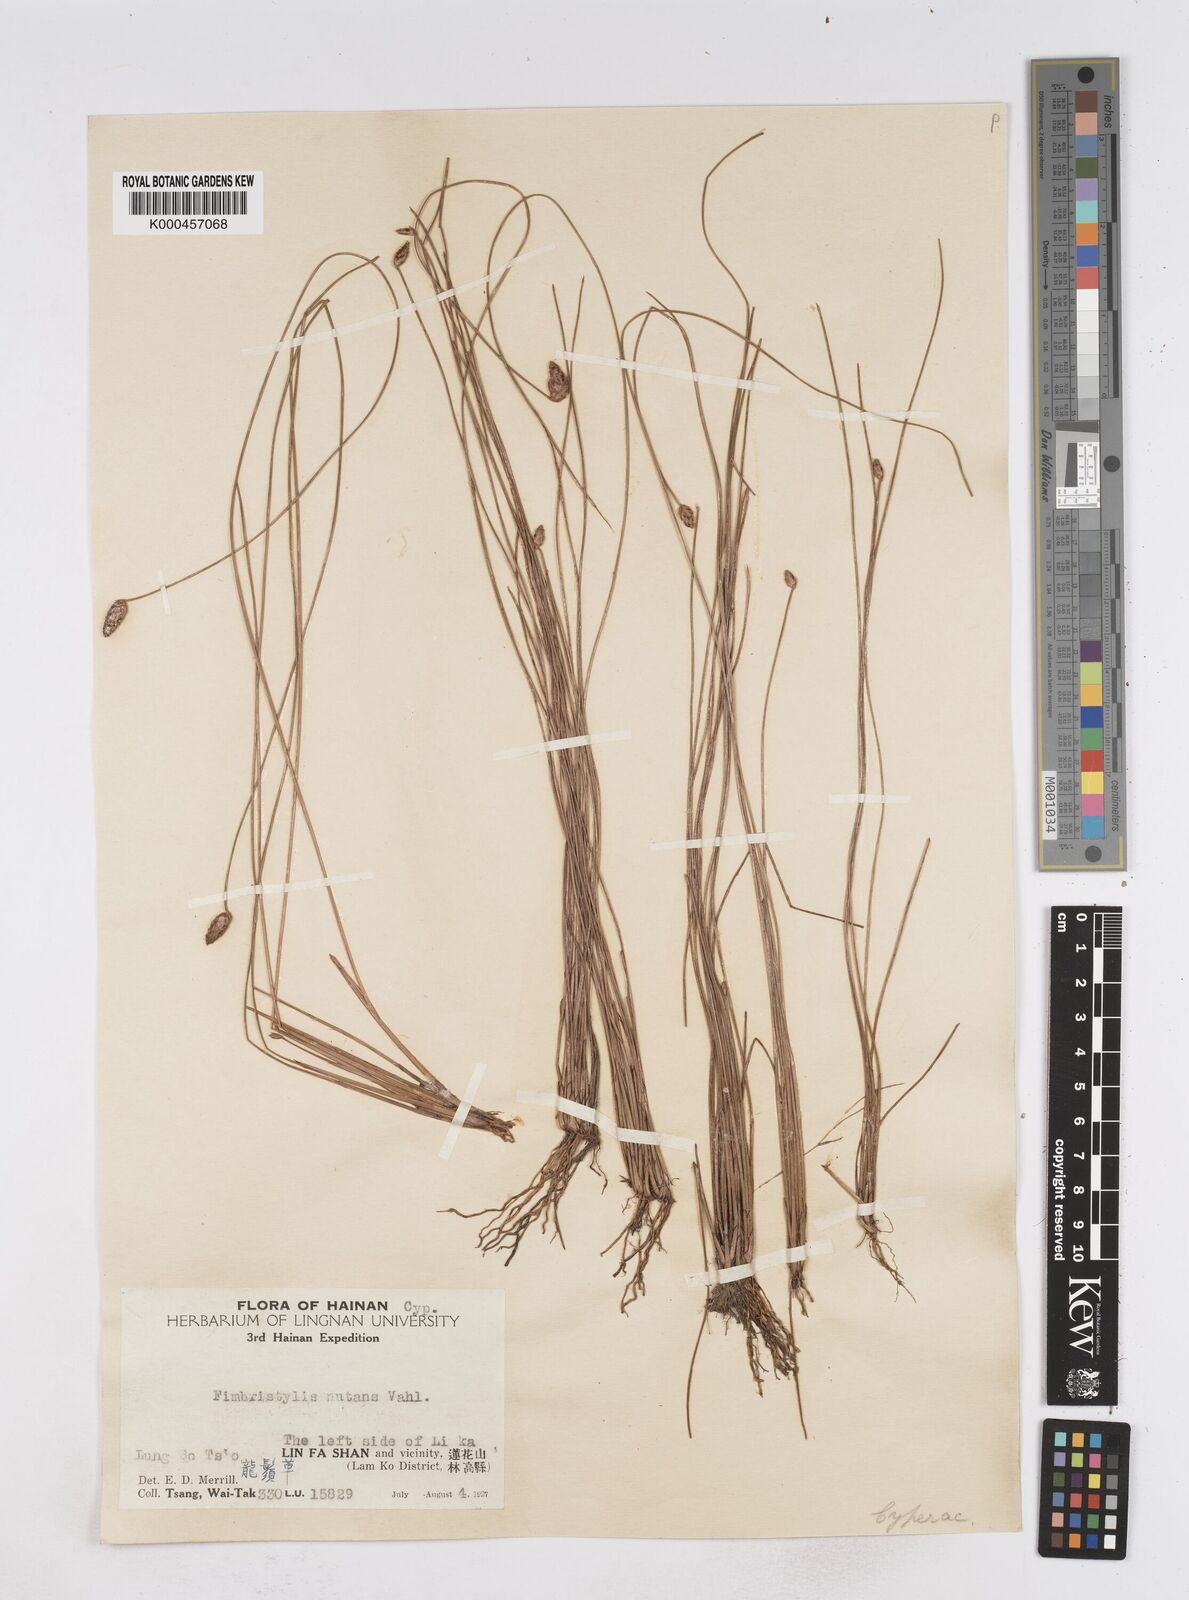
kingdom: Plantae
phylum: Tracheophyta
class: Liliopsida
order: Poales
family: Cyperaceae
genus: Fimbristylis
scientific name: Fimbristylis nutans
